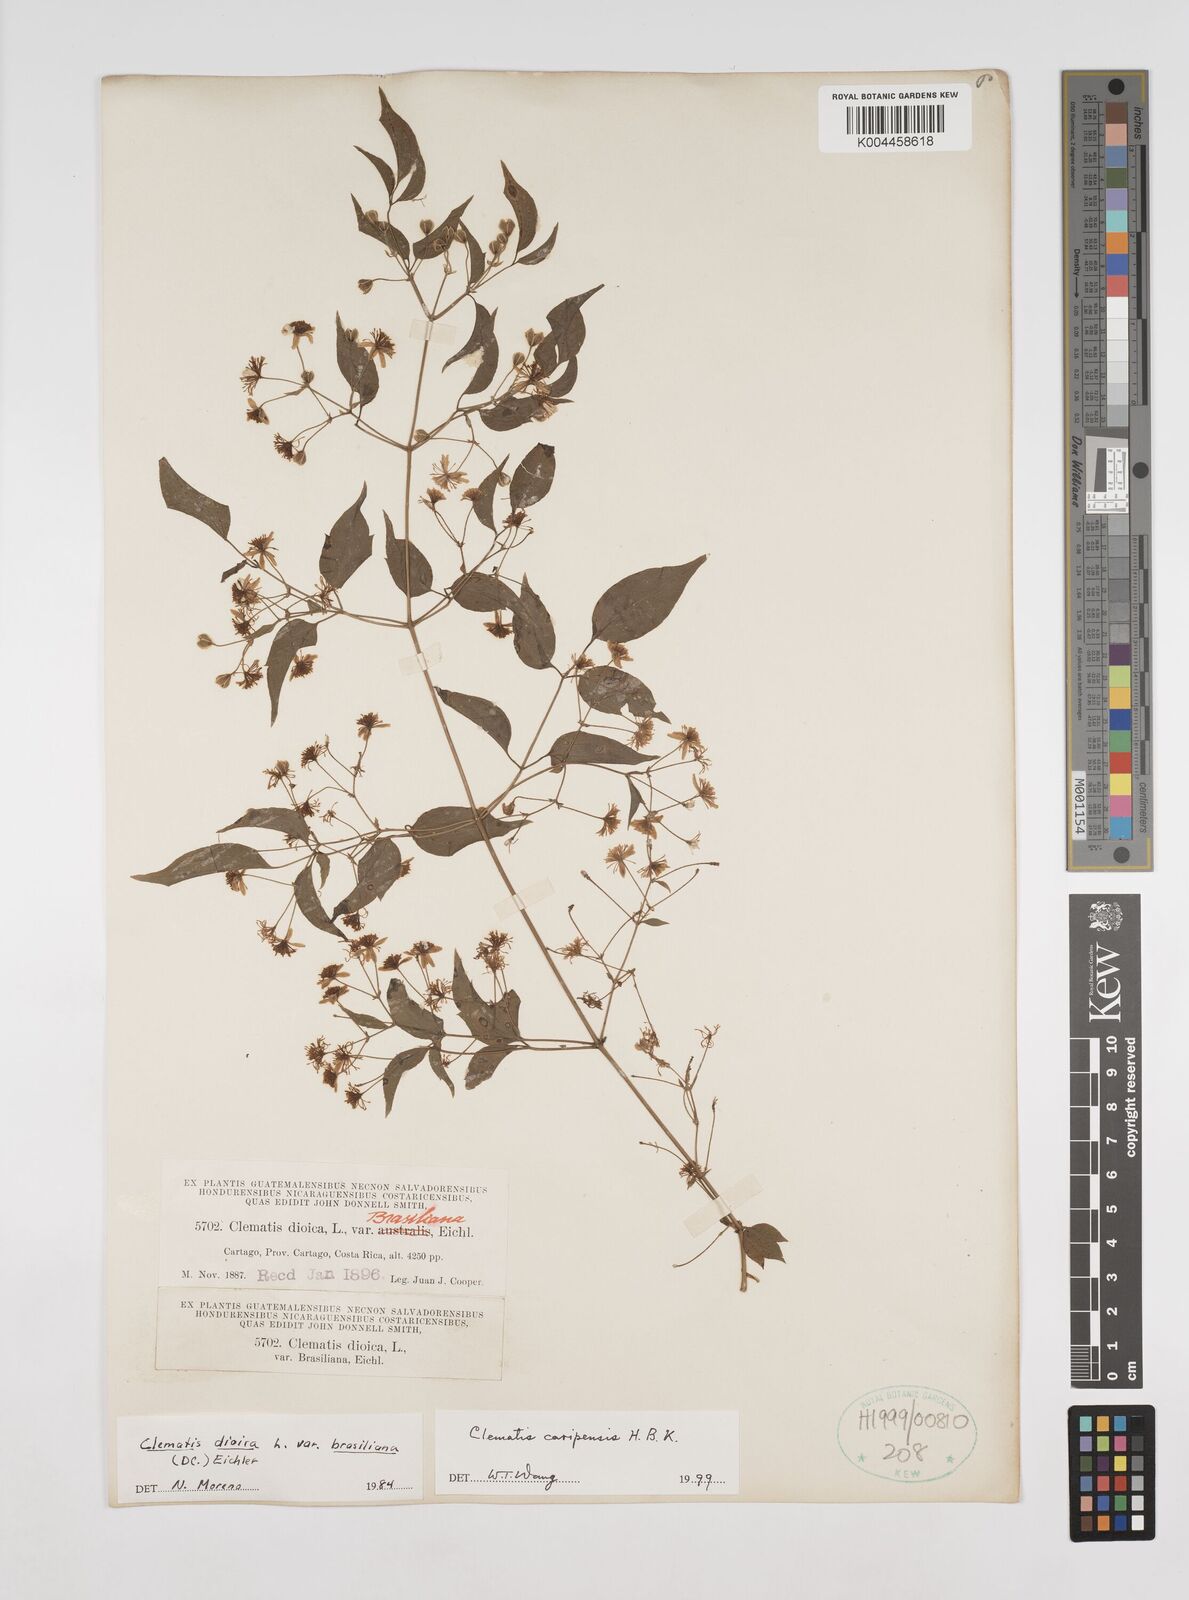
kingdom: Plantae
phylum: Tracheophyta
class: Magnoliopsida
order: Ranunculales
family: Ranunculaceae
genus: Clematis
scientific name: Clematis guadeloupae
